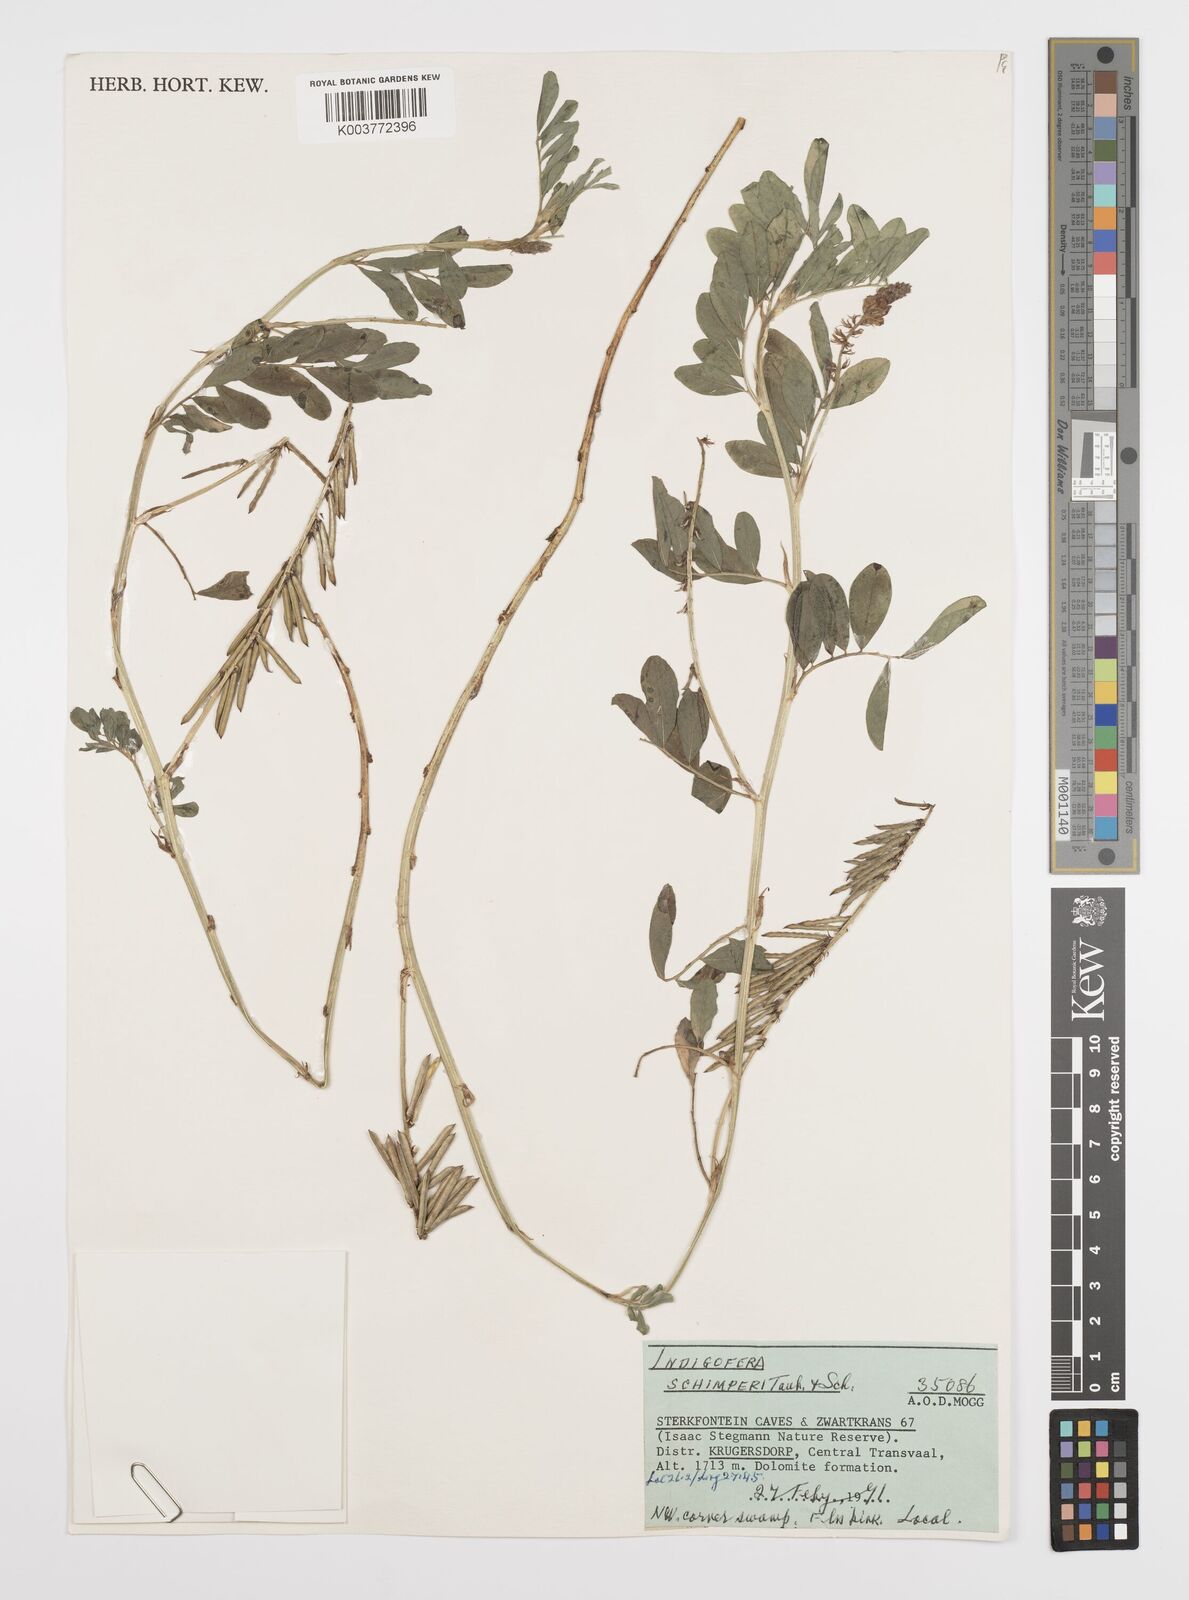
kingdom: Plantae
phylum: Tracheophyta
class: Magnoliopsida
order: Fabales
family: Fabaceae
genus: Indigofera
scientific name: Indigofera spicata
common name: Creeping indigo
